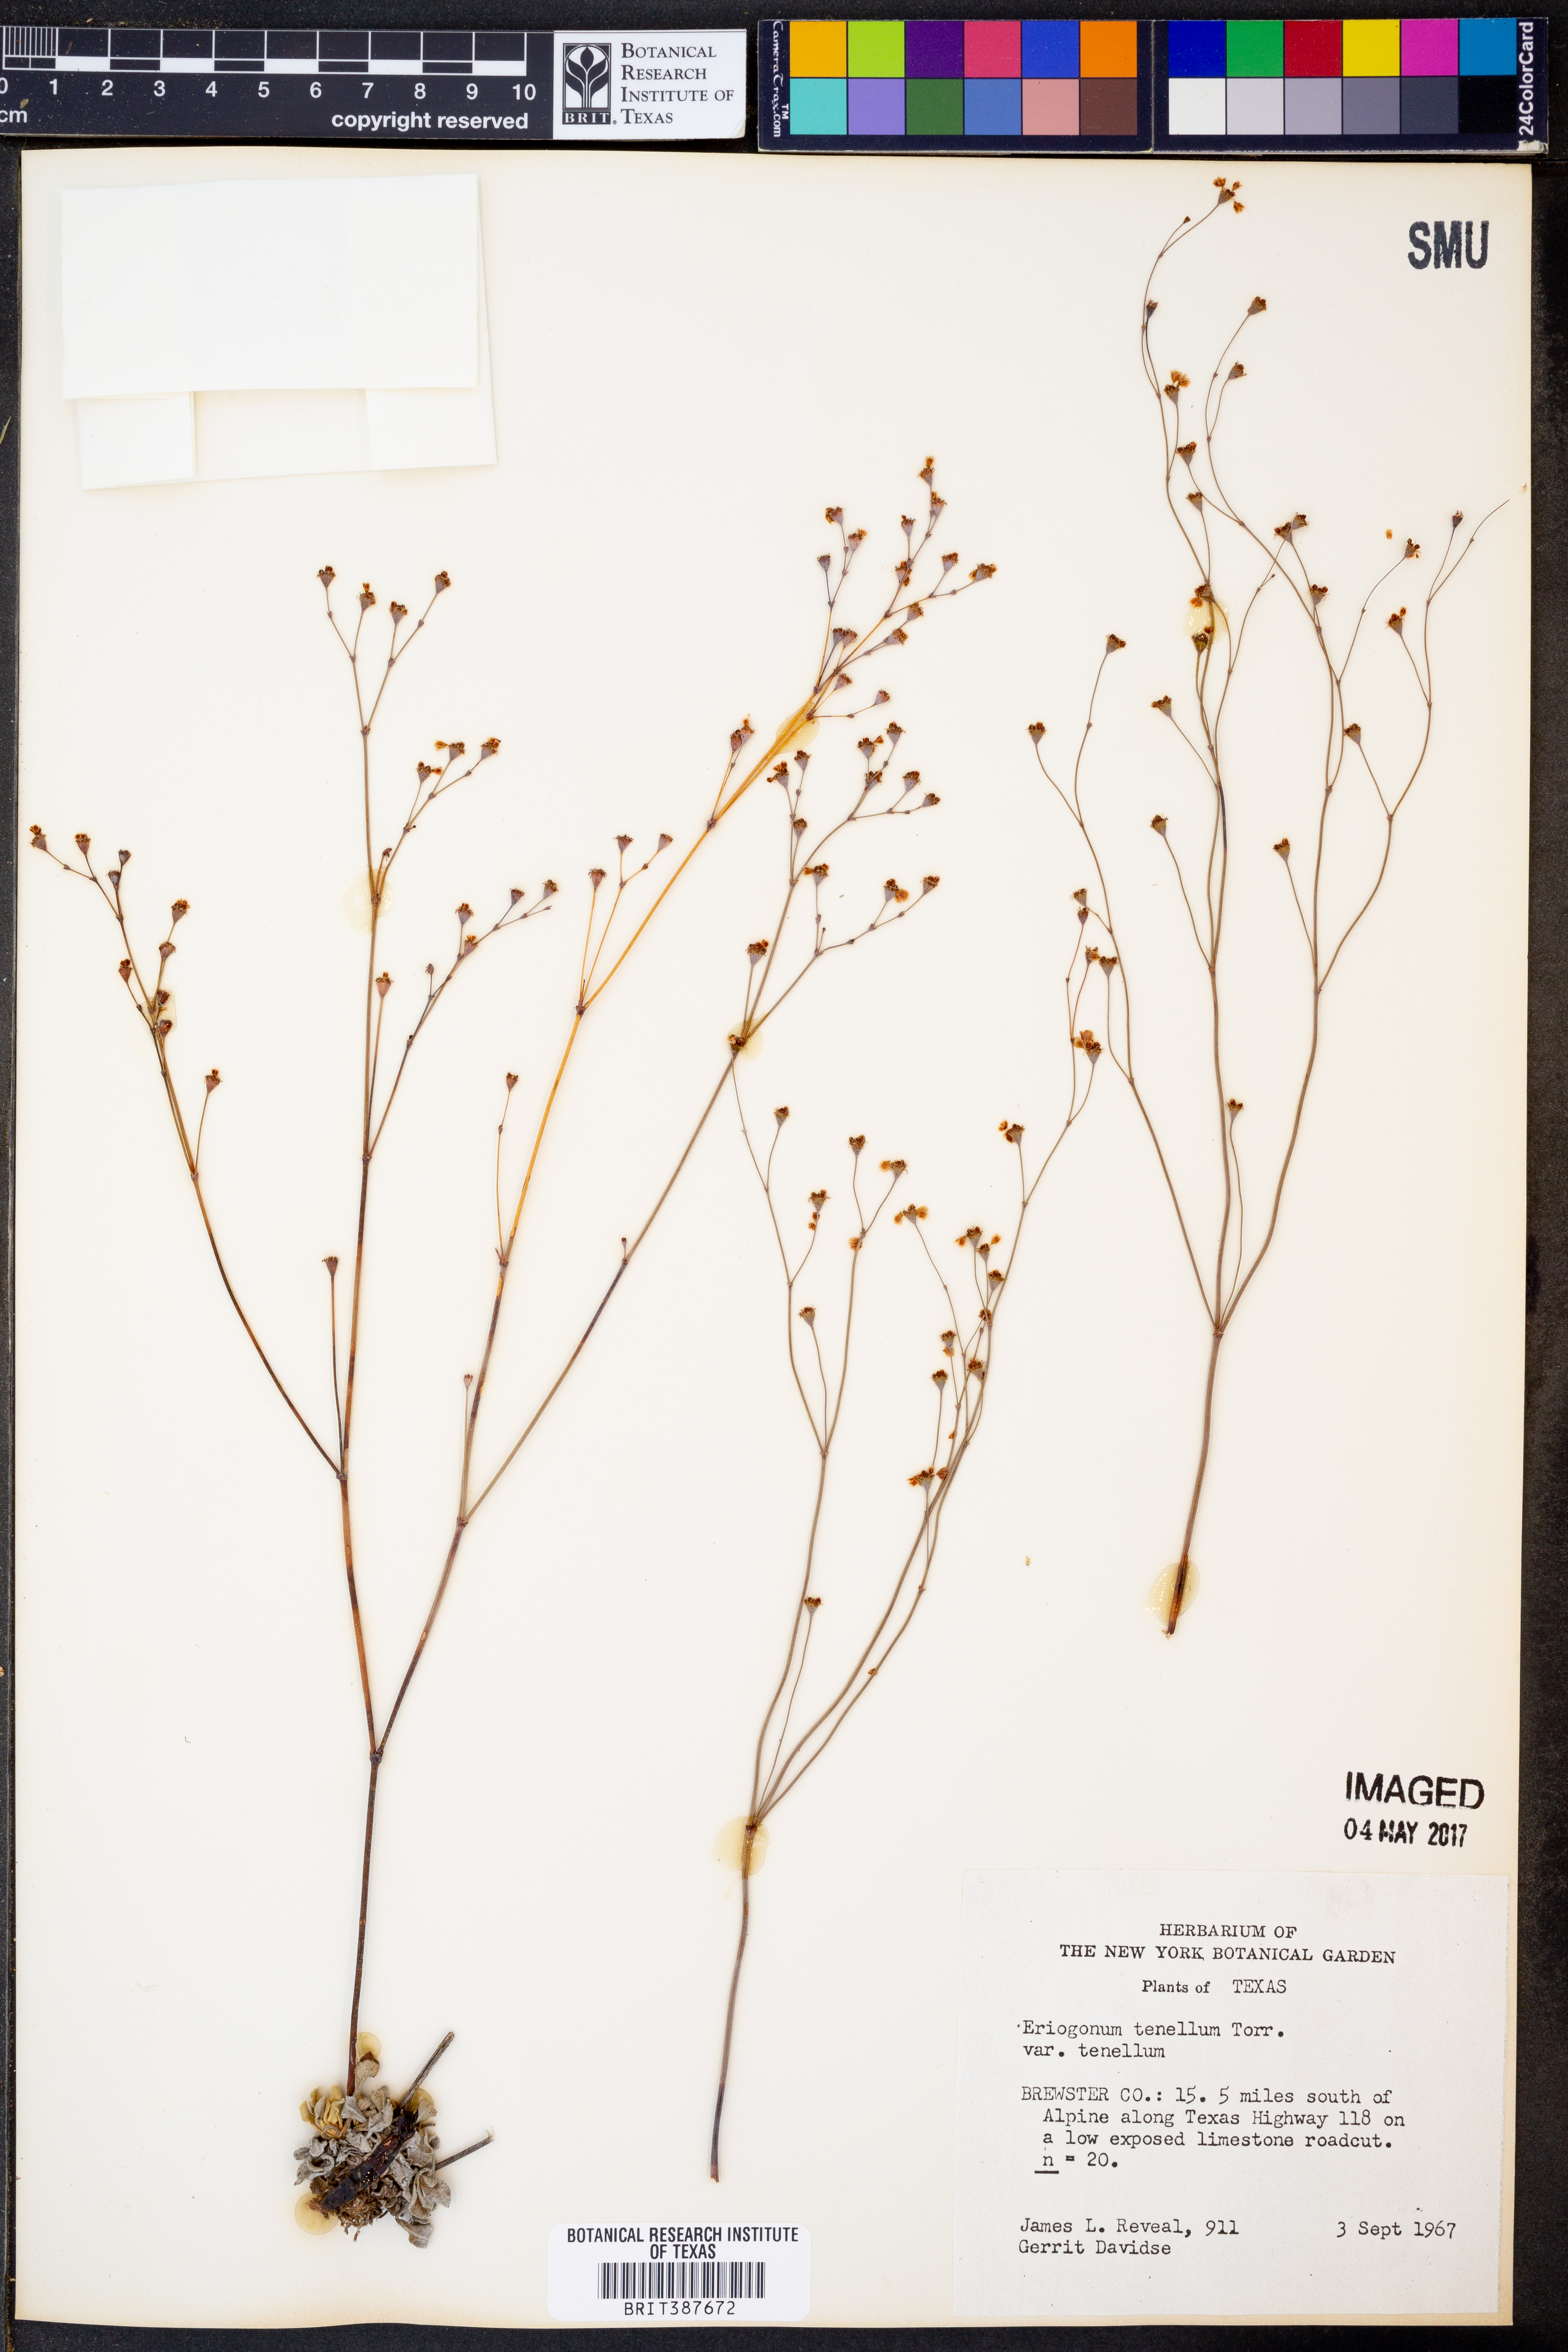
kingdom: Plantae
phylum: Tracheophyta
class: Magnoliopsida
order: Caryophyllales
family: Polygonaceae
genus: Eriogonum
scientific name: Eriogonum tenellum
